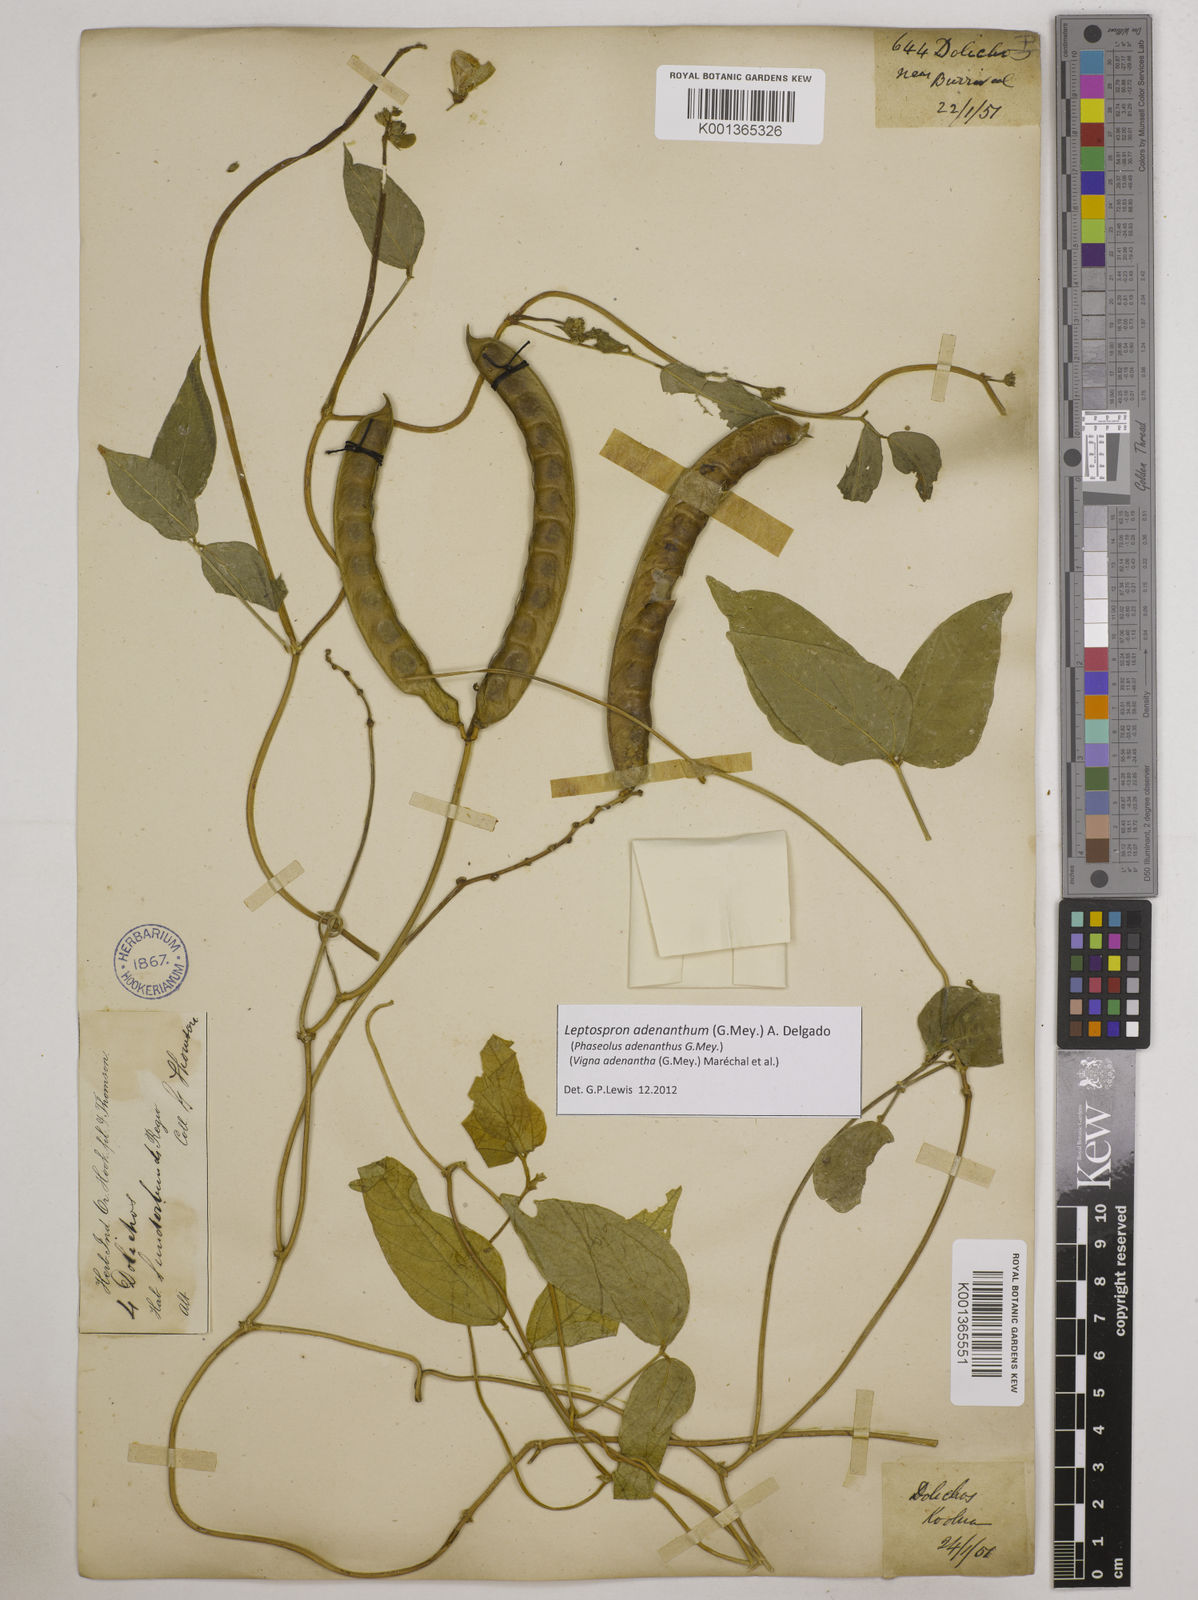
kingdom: Plantae
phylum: Tracheophyta
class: Magnoliopsida
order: Fabales
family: Fabaceae
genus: Leptospron
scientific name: Leptospron adenanthum
